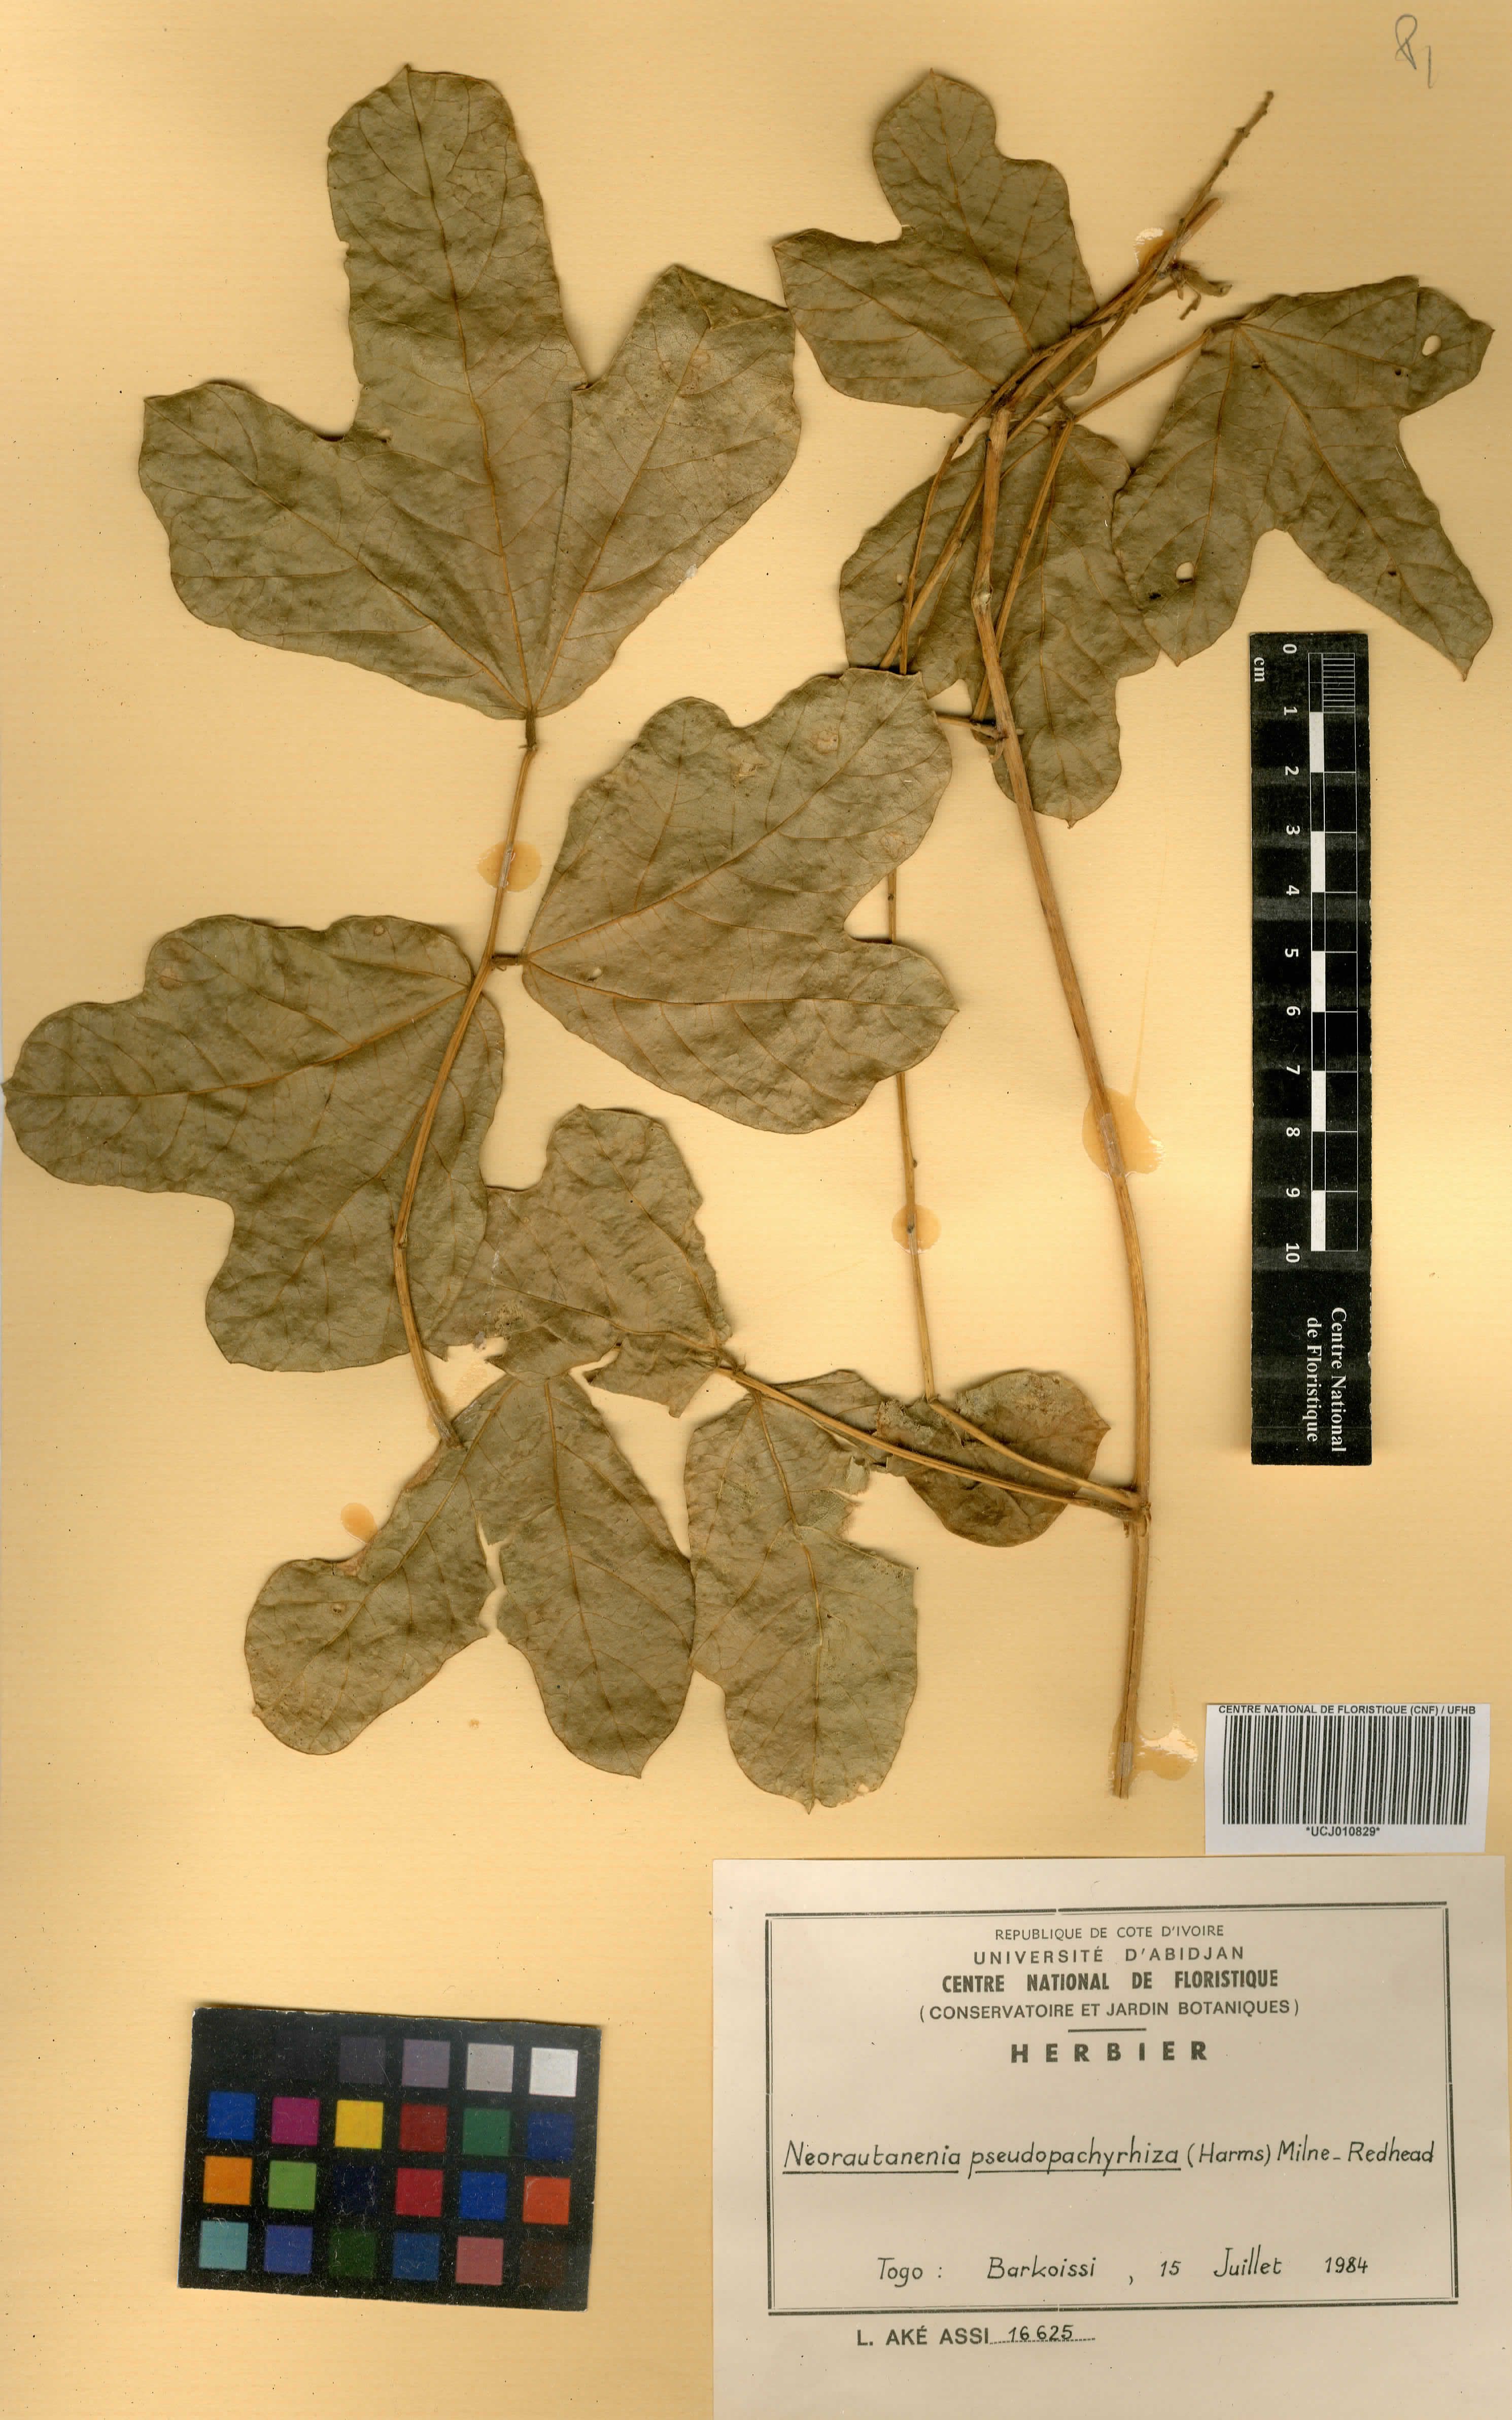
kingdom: Plantae
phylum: Tracheophyta
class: Magnoliopsida
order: Fabales
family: Fabaceae
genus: Neorautanenia
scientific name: Neorautanenia mitis
